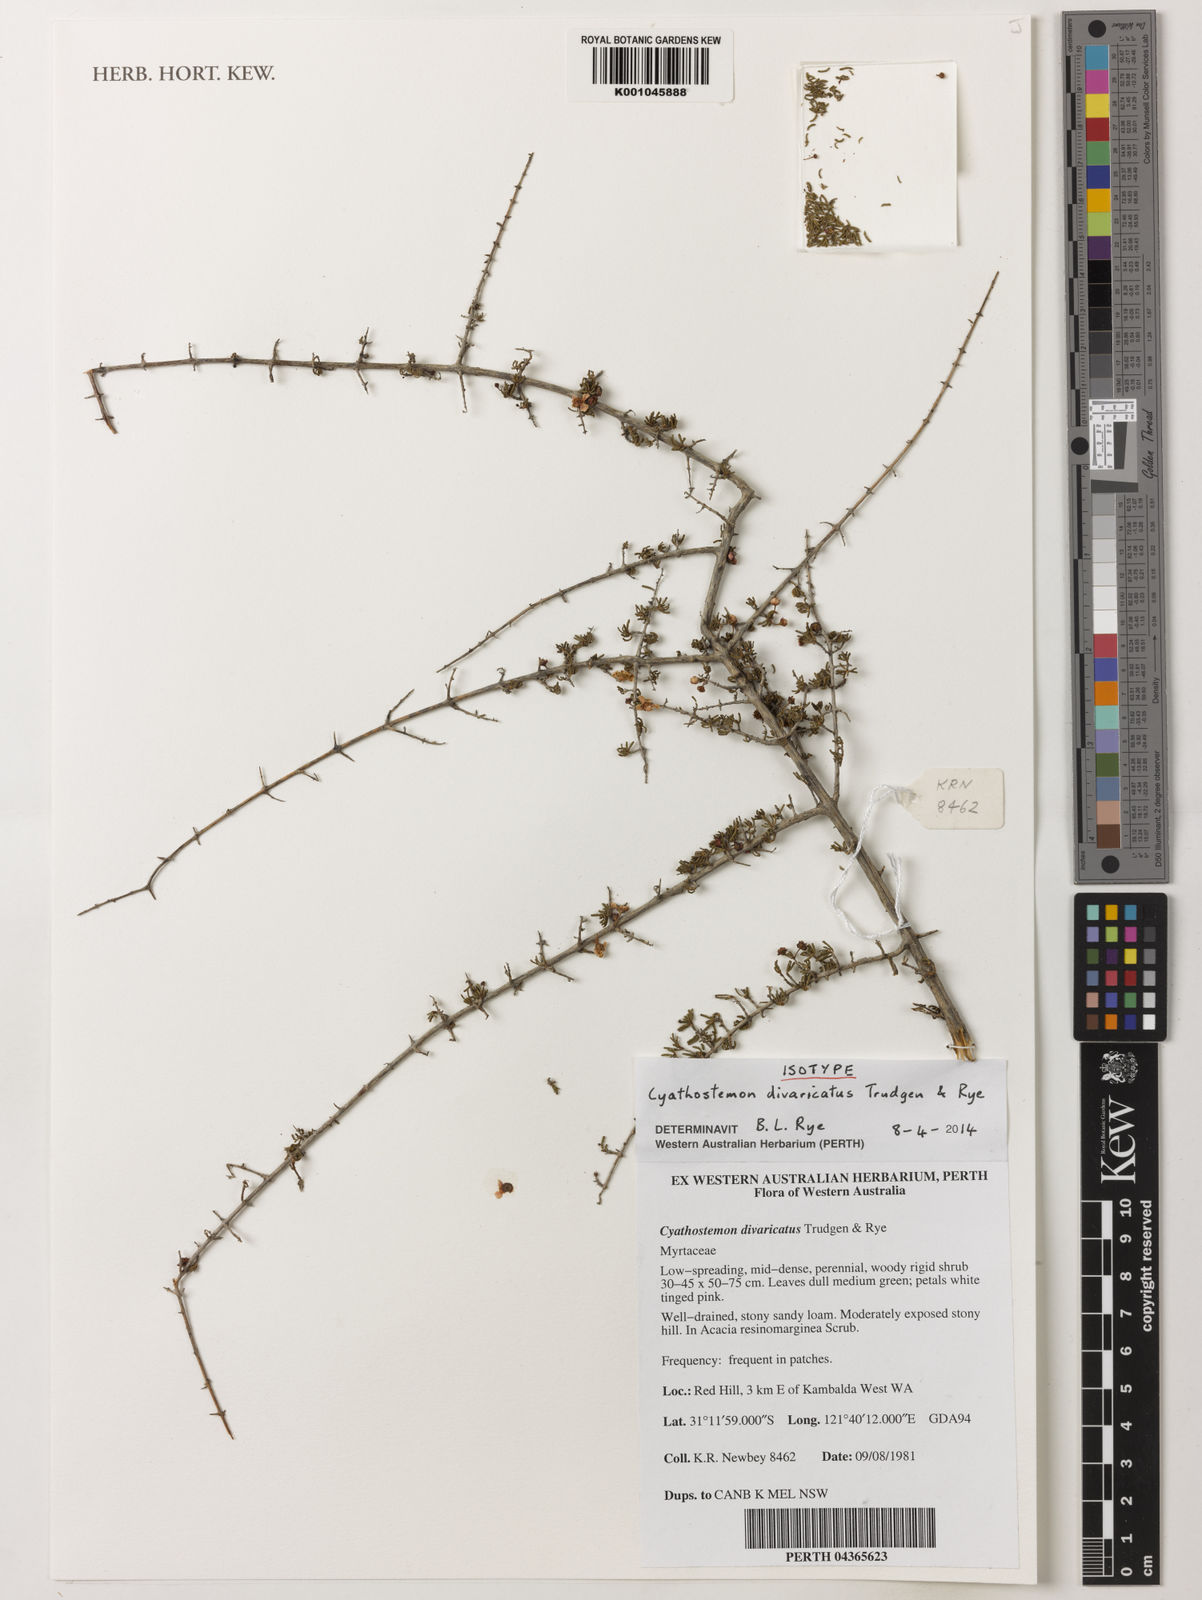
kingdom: Plantae
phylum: Tracheophyta
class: Magnoliopsida
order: Myrtales
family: Myrtaceae
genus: Cyathostemon
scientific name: Cyathostemon divaricatus
